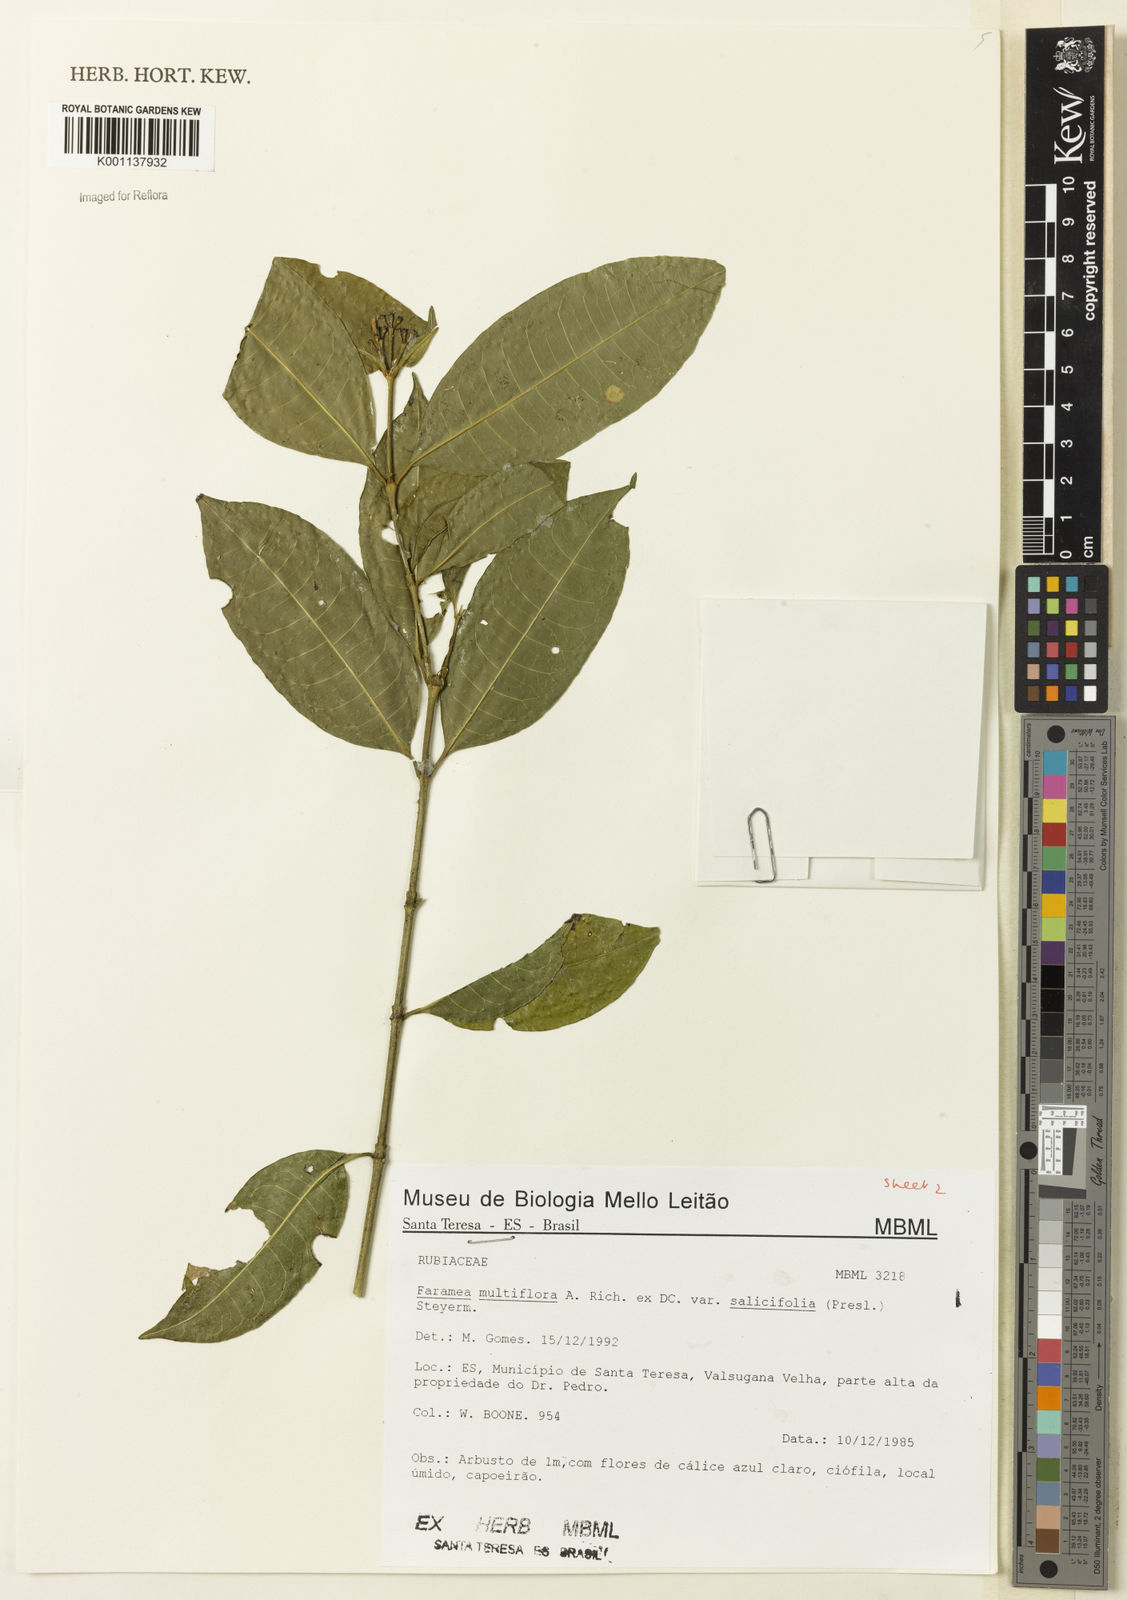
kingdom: Plantae
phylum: Tracheophyta
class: Magnoliopsida
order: Gentianales
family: Rubiaceae
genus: Faramea
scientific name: Faramea multiflora
